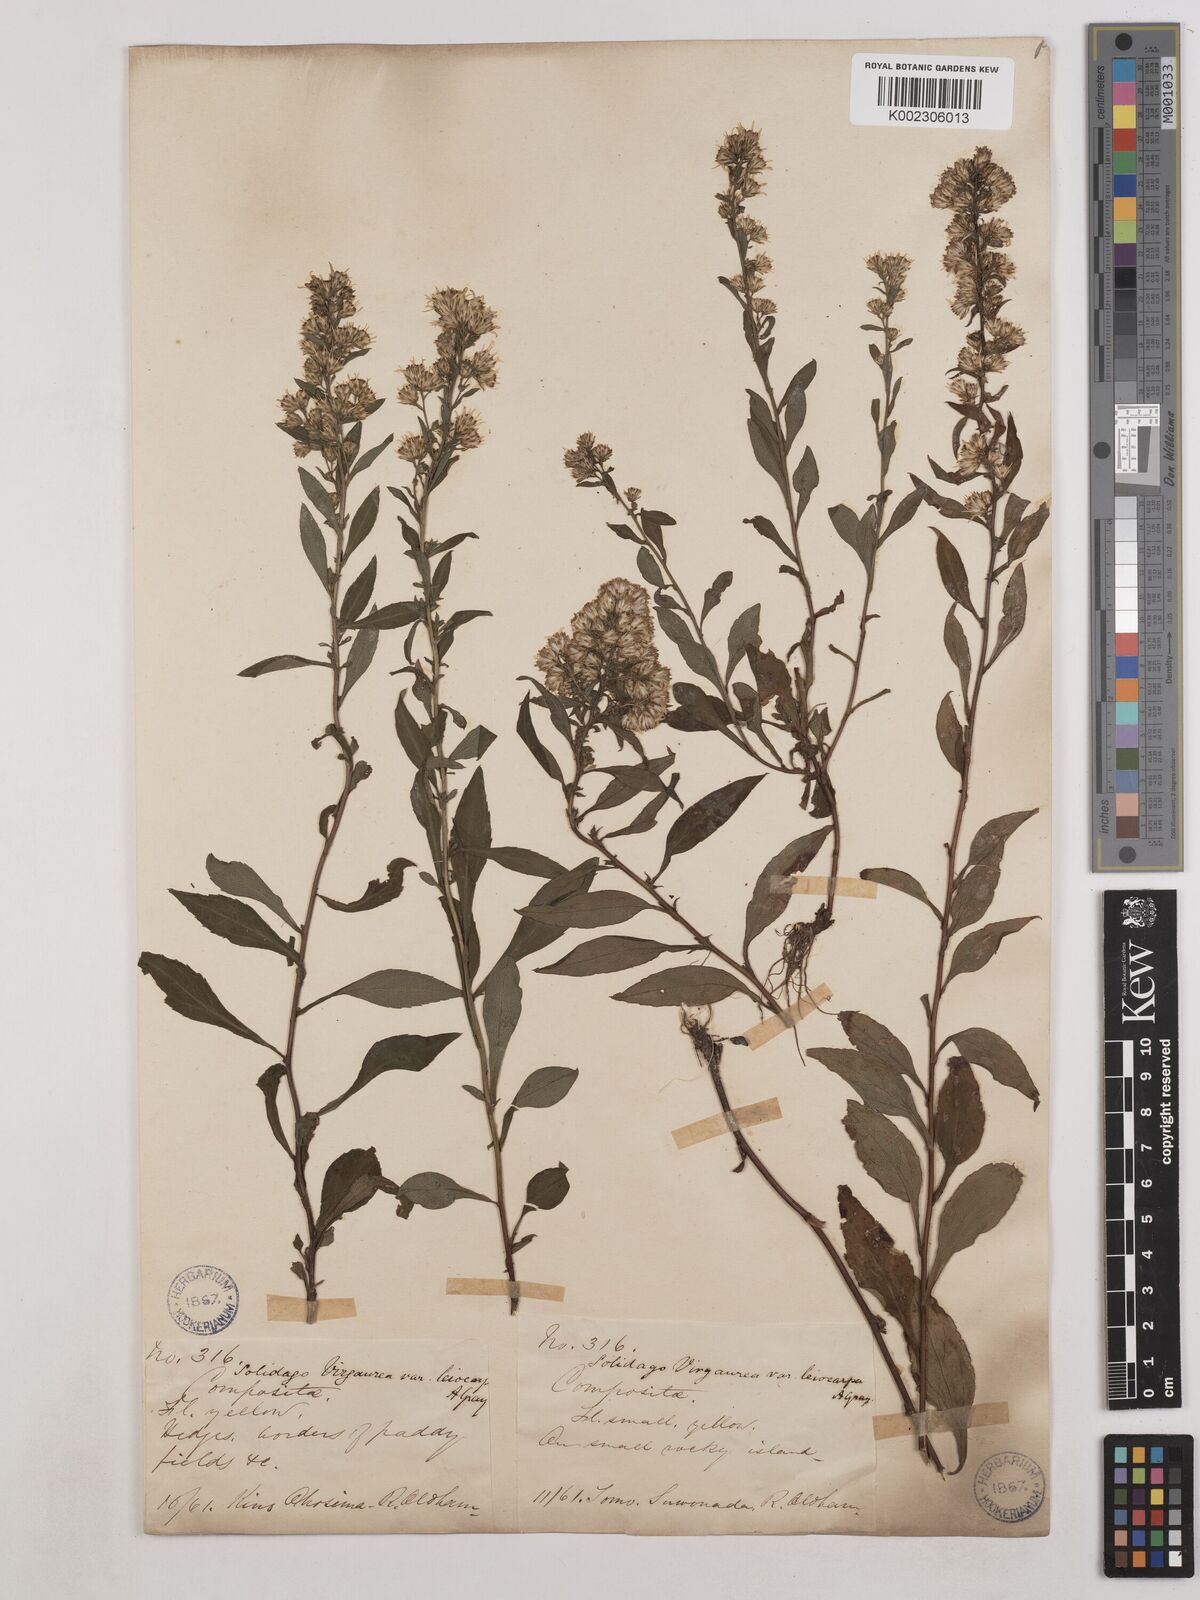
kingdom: Plantae
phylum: Tracheophyta
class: Magnoliopsida
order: Asterales
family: Asteraceae
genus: Solidago
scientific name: Solidago decurrens
